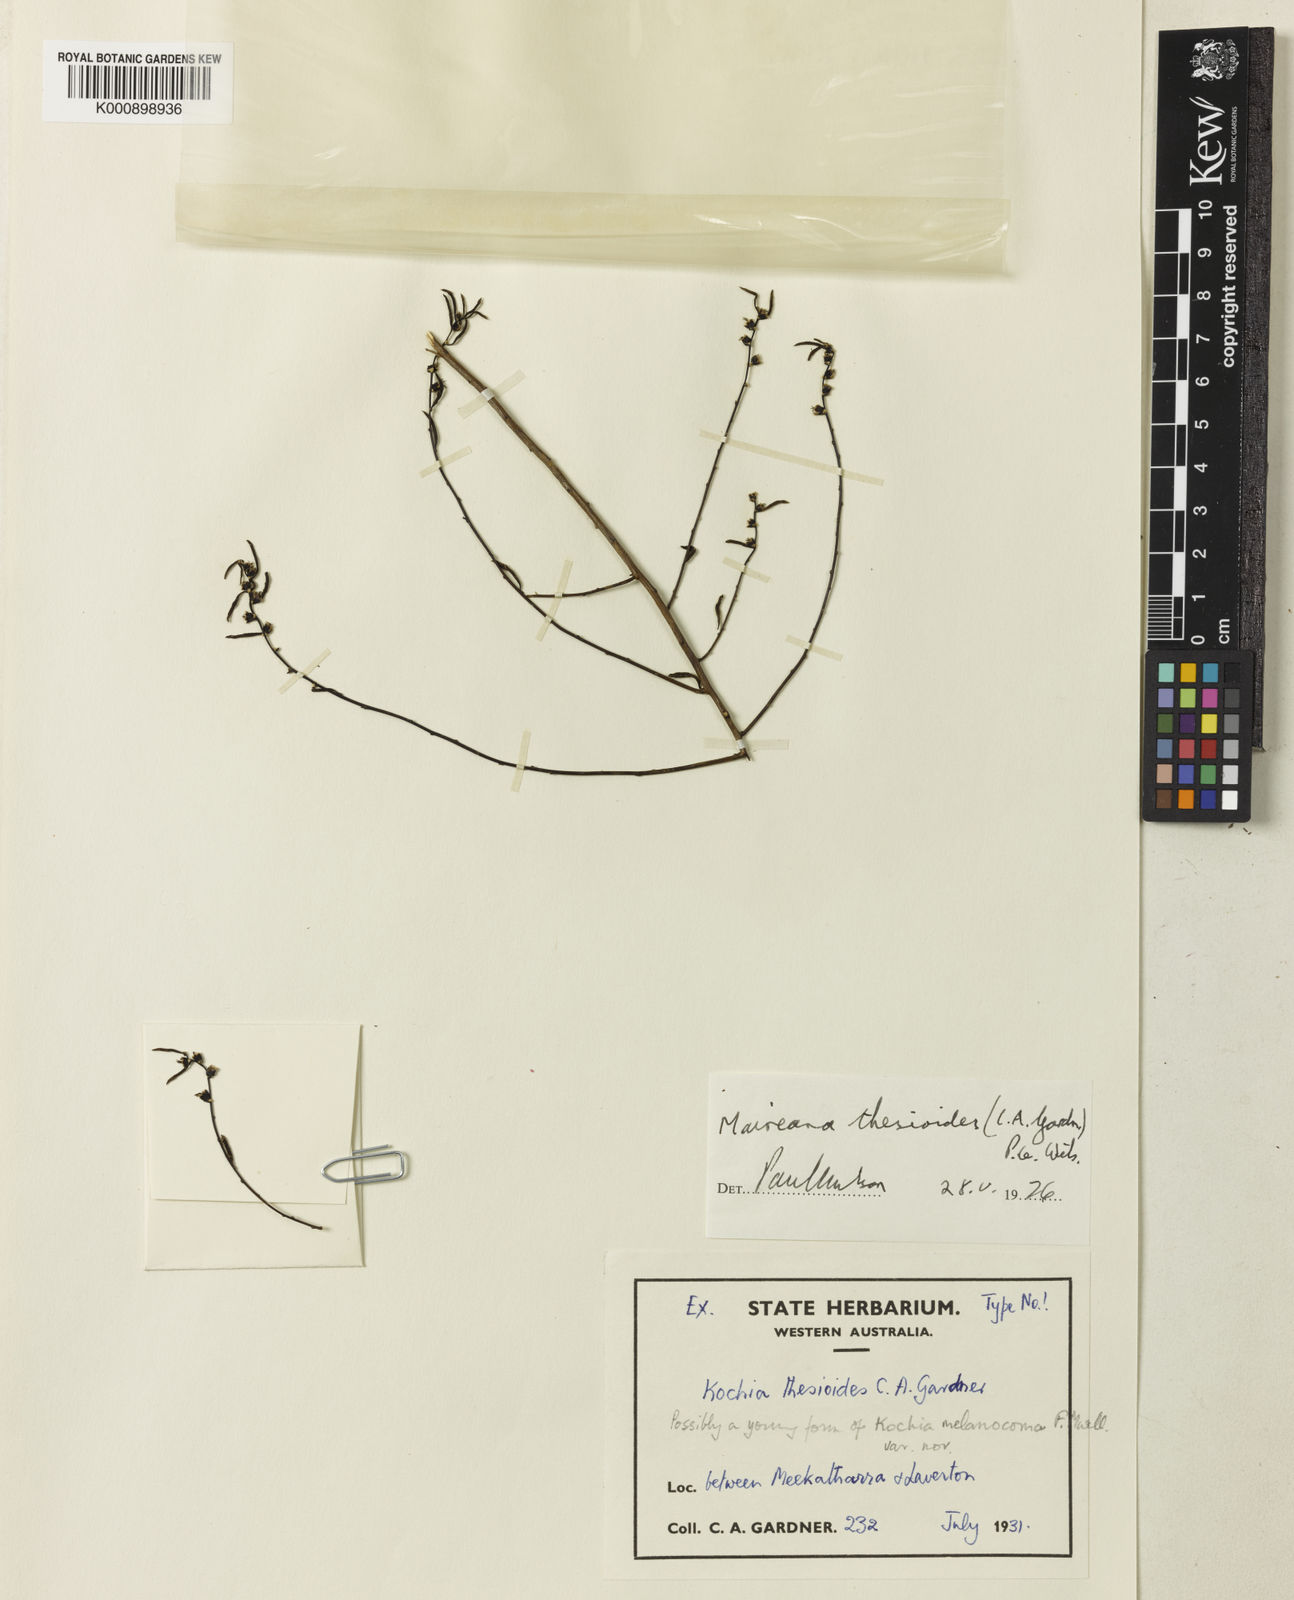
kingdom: Plantae
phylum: Tracheophyta
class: Magnoliopsida
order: Caryophyllales
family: Amaranthaceae
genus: Maireana
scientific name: Maireana thesioides
